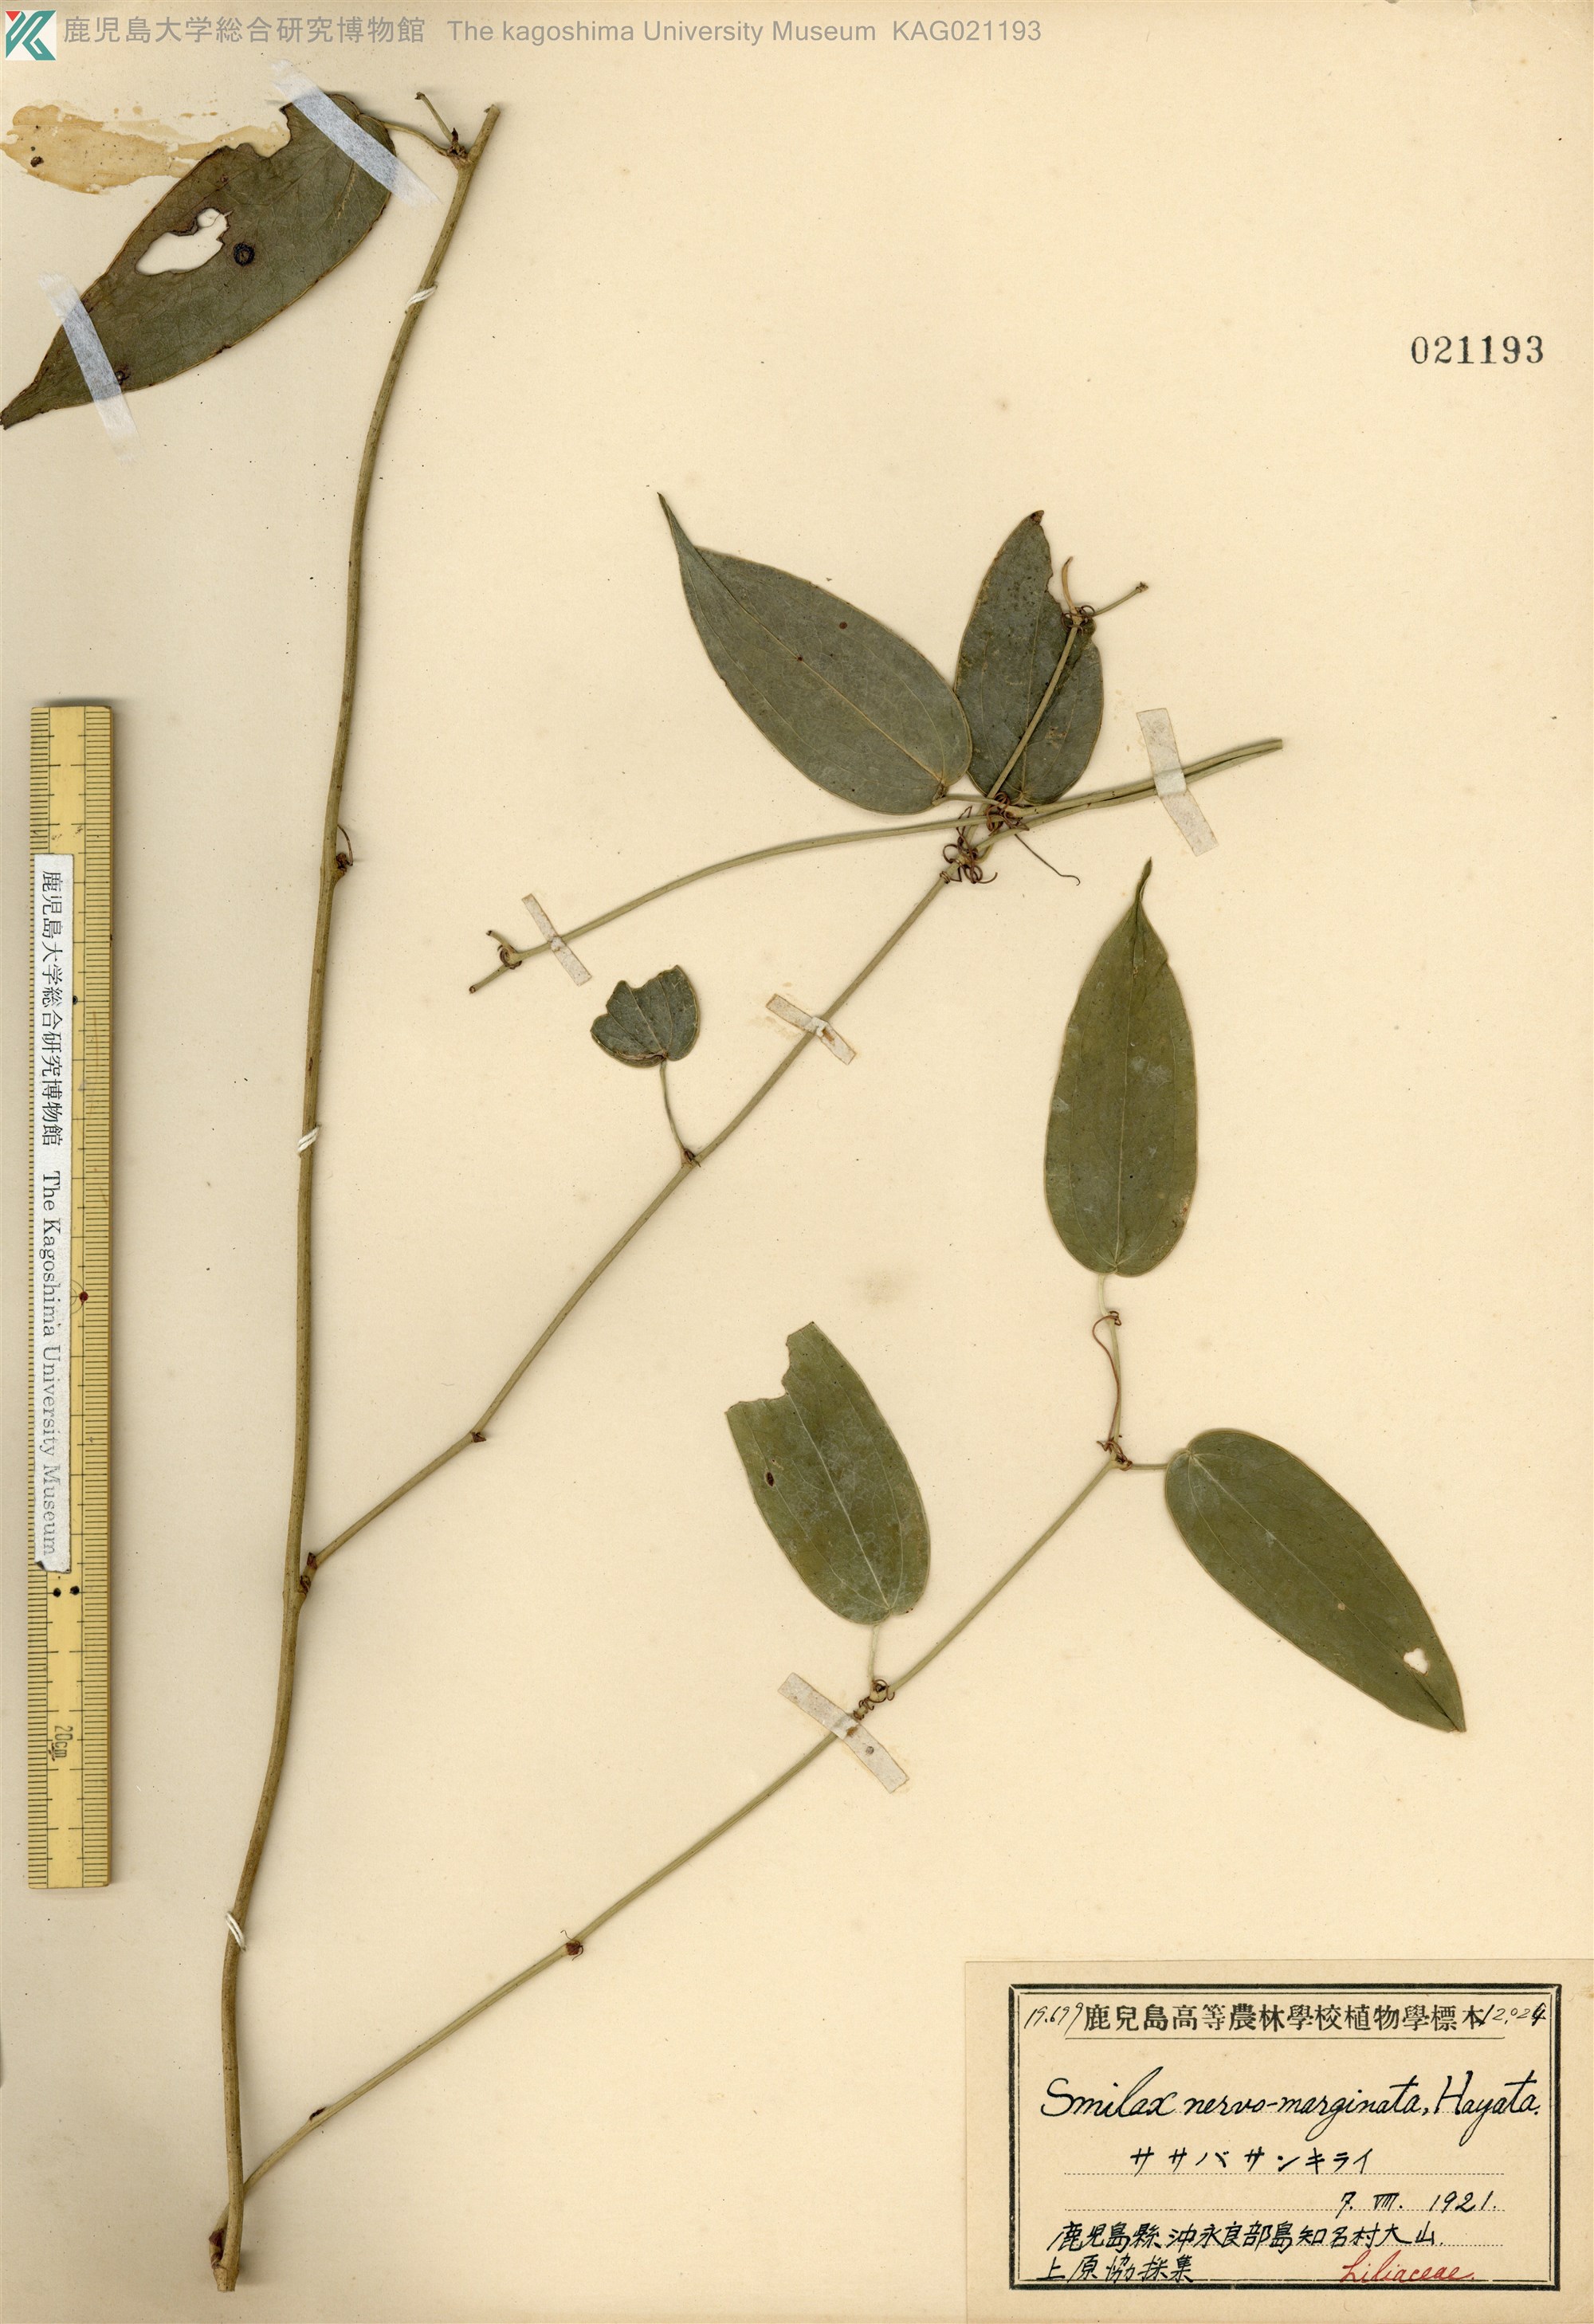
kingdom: Plantae
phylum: Tracheophyta
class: Liliopsida
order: Liliales
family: Smilacaceae
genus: Smilax
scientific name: Smilax nervomarginata
